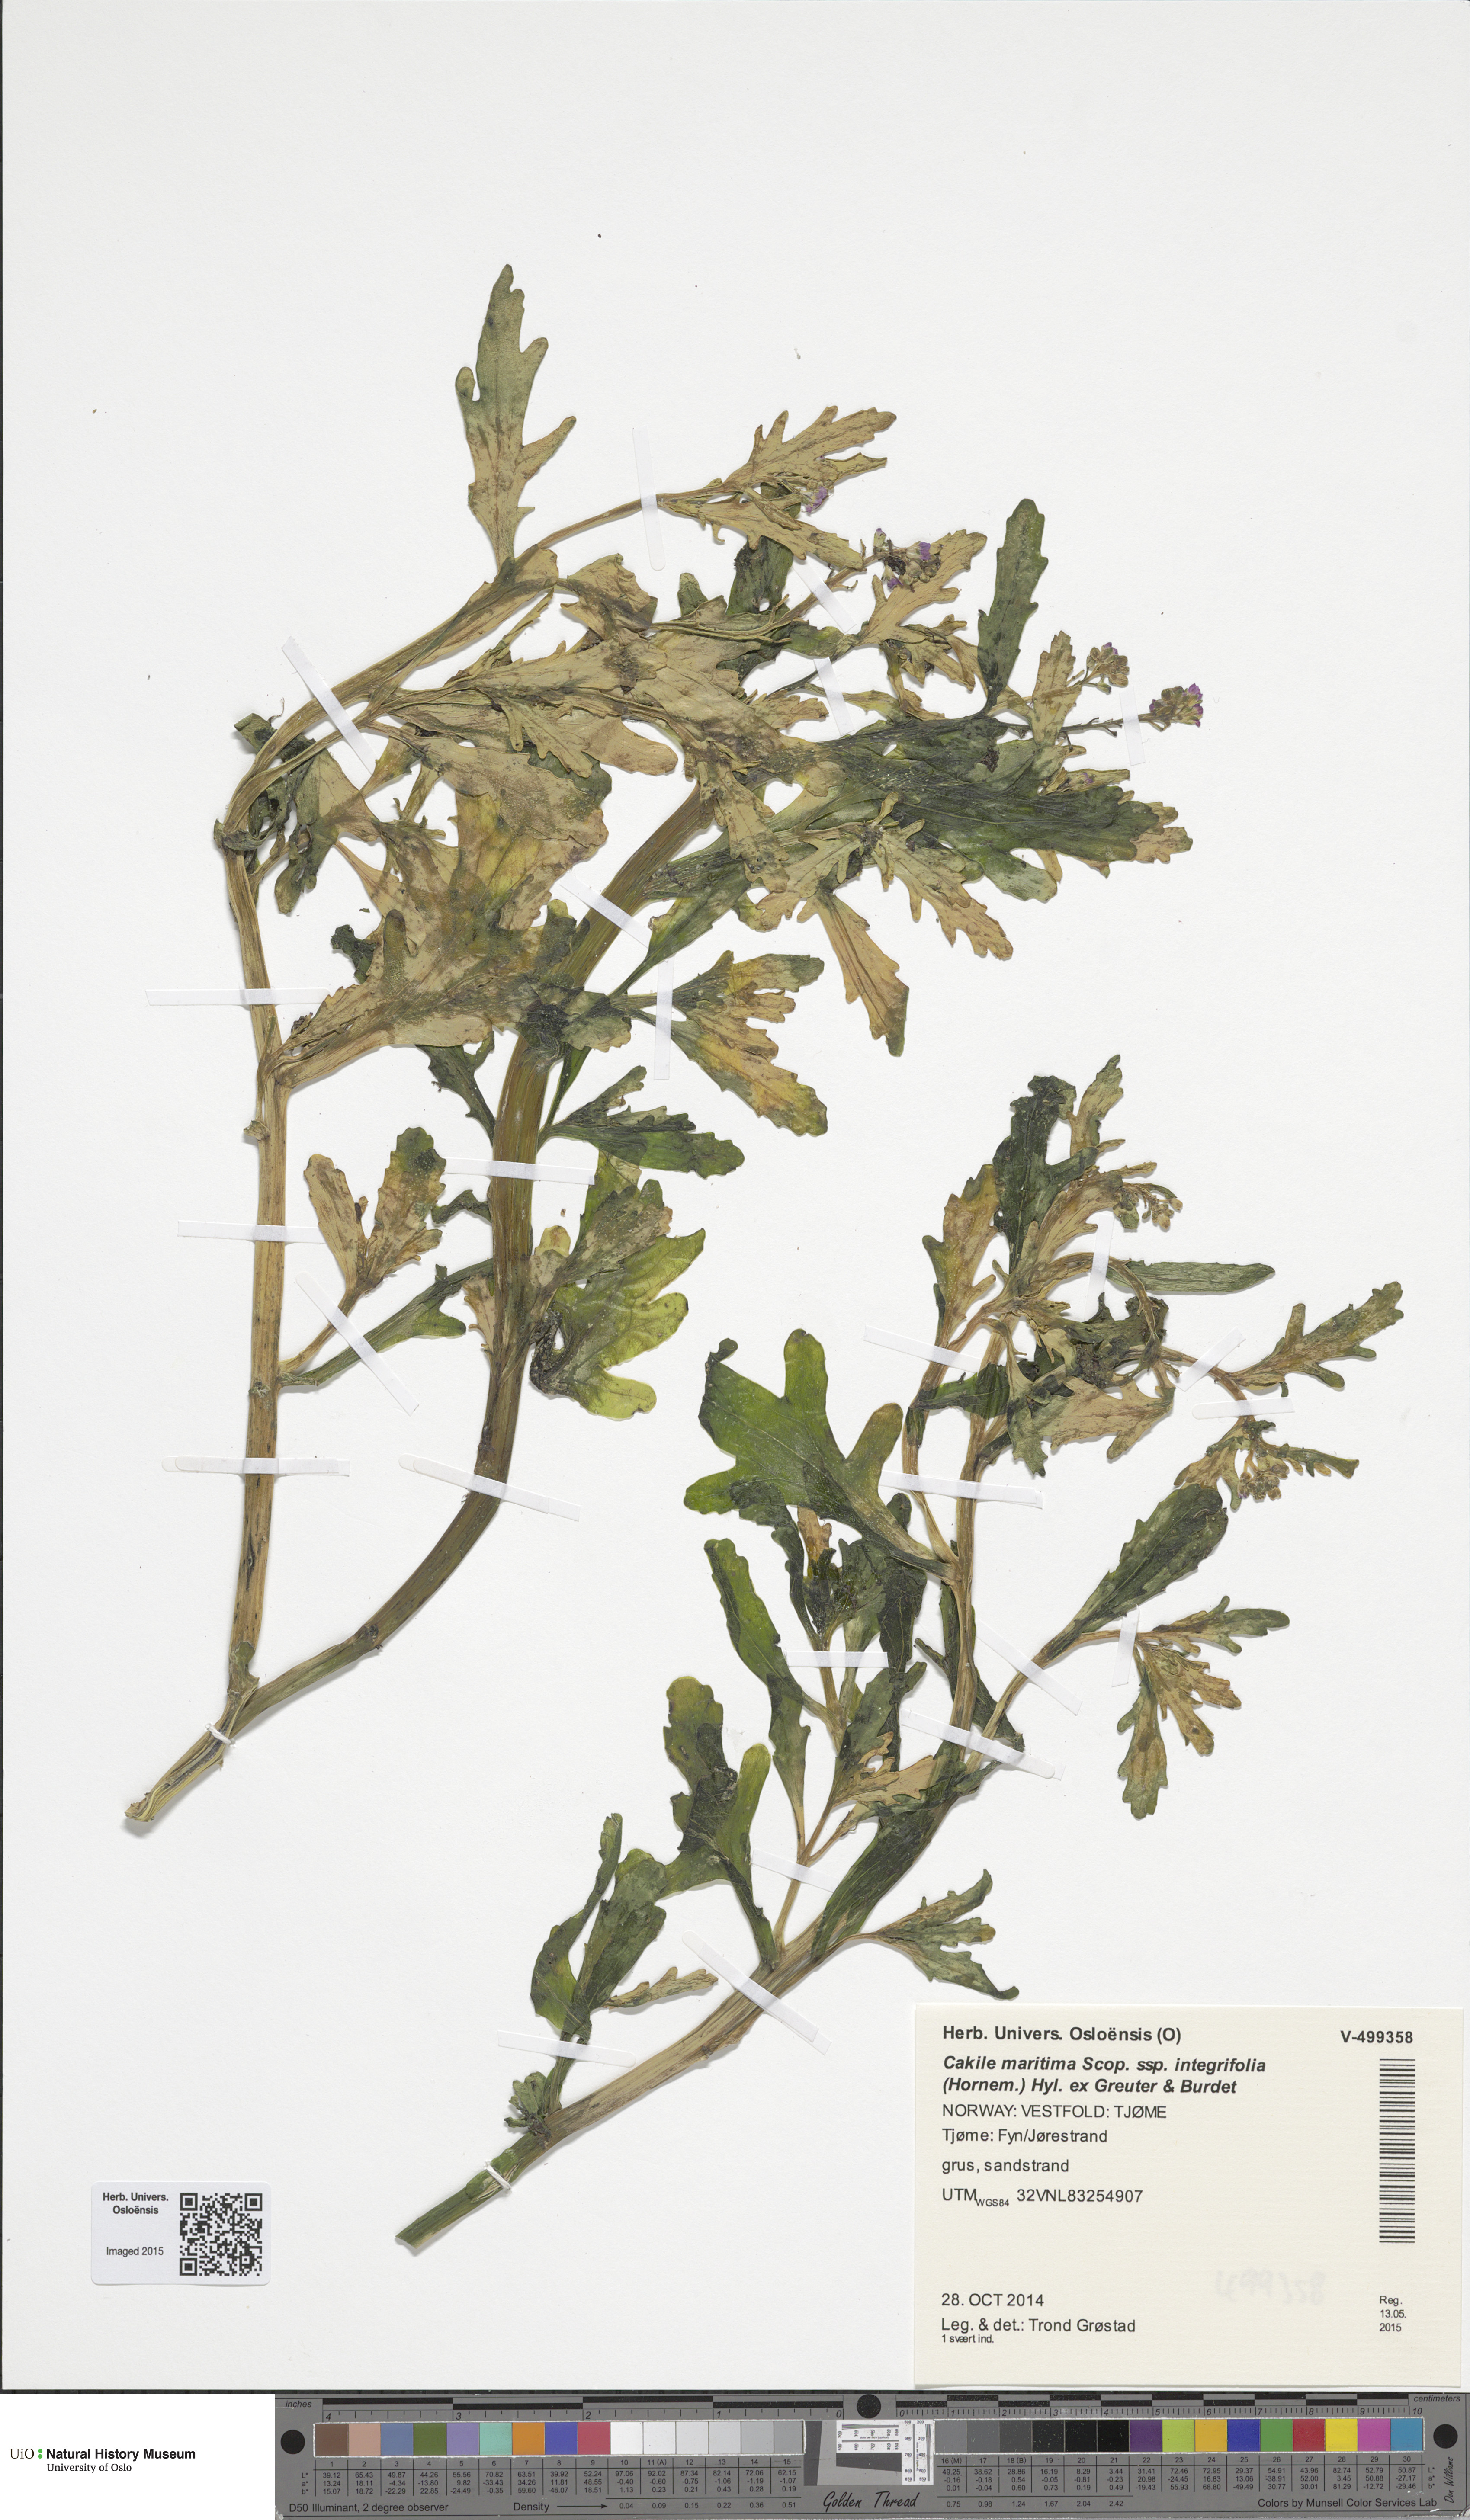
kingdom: Plantae
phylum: Tracheophyta
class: Magnoliopsida
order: Brassicales
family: Brassicaceae
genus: Cakile
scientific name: Cakile maritima
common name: Sea rocket
